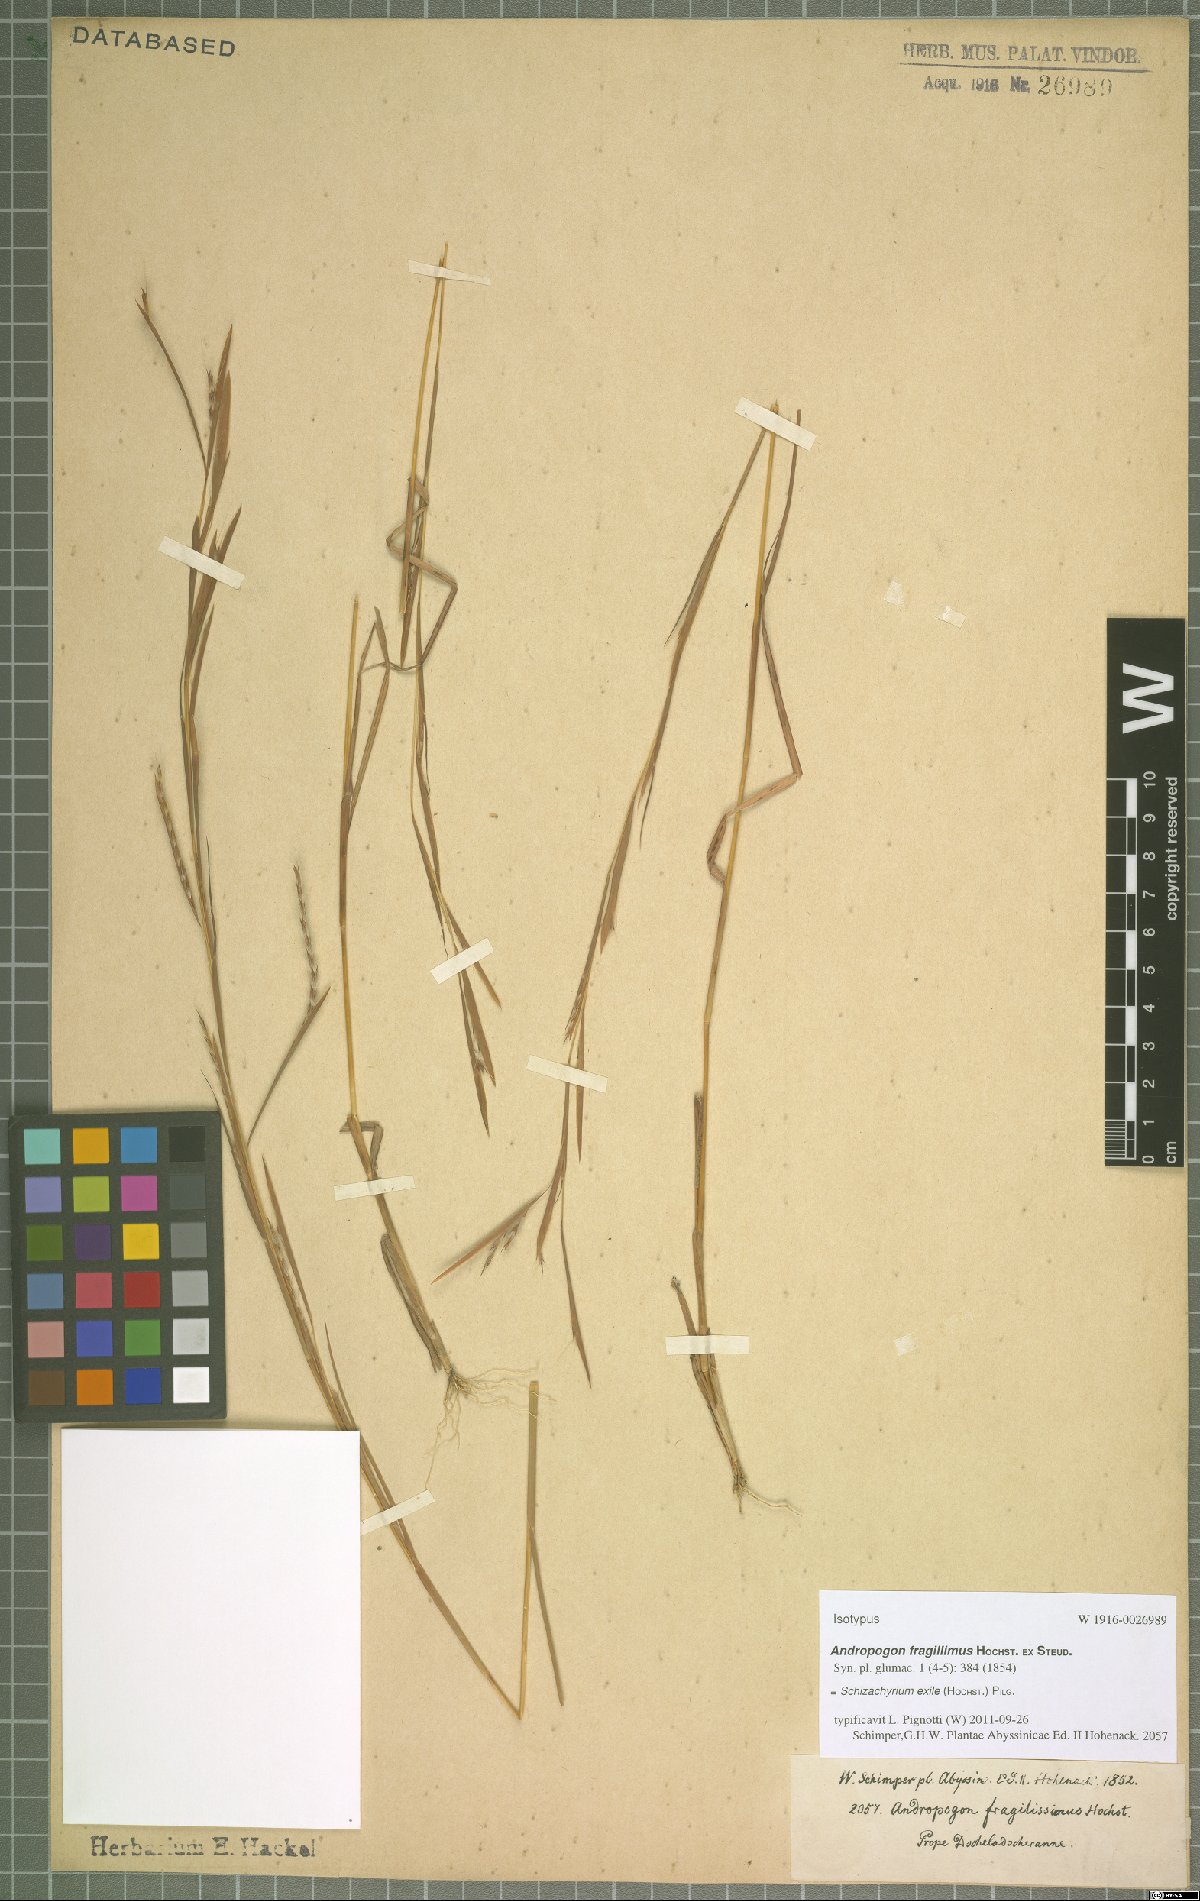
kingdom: Plantae
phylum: Tracheophyta
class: Liliopsida
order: Poales
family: Poaceae
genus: Schizachyrium
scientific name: Schizachyrium exile
